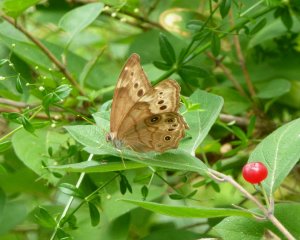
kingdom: Animalia
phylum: Arthropoda
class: Insecta
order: Lepidoptera
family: Nymphalidae
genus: Lethe
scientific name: Lethe anthedon
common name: Northern Pearly-Eye
